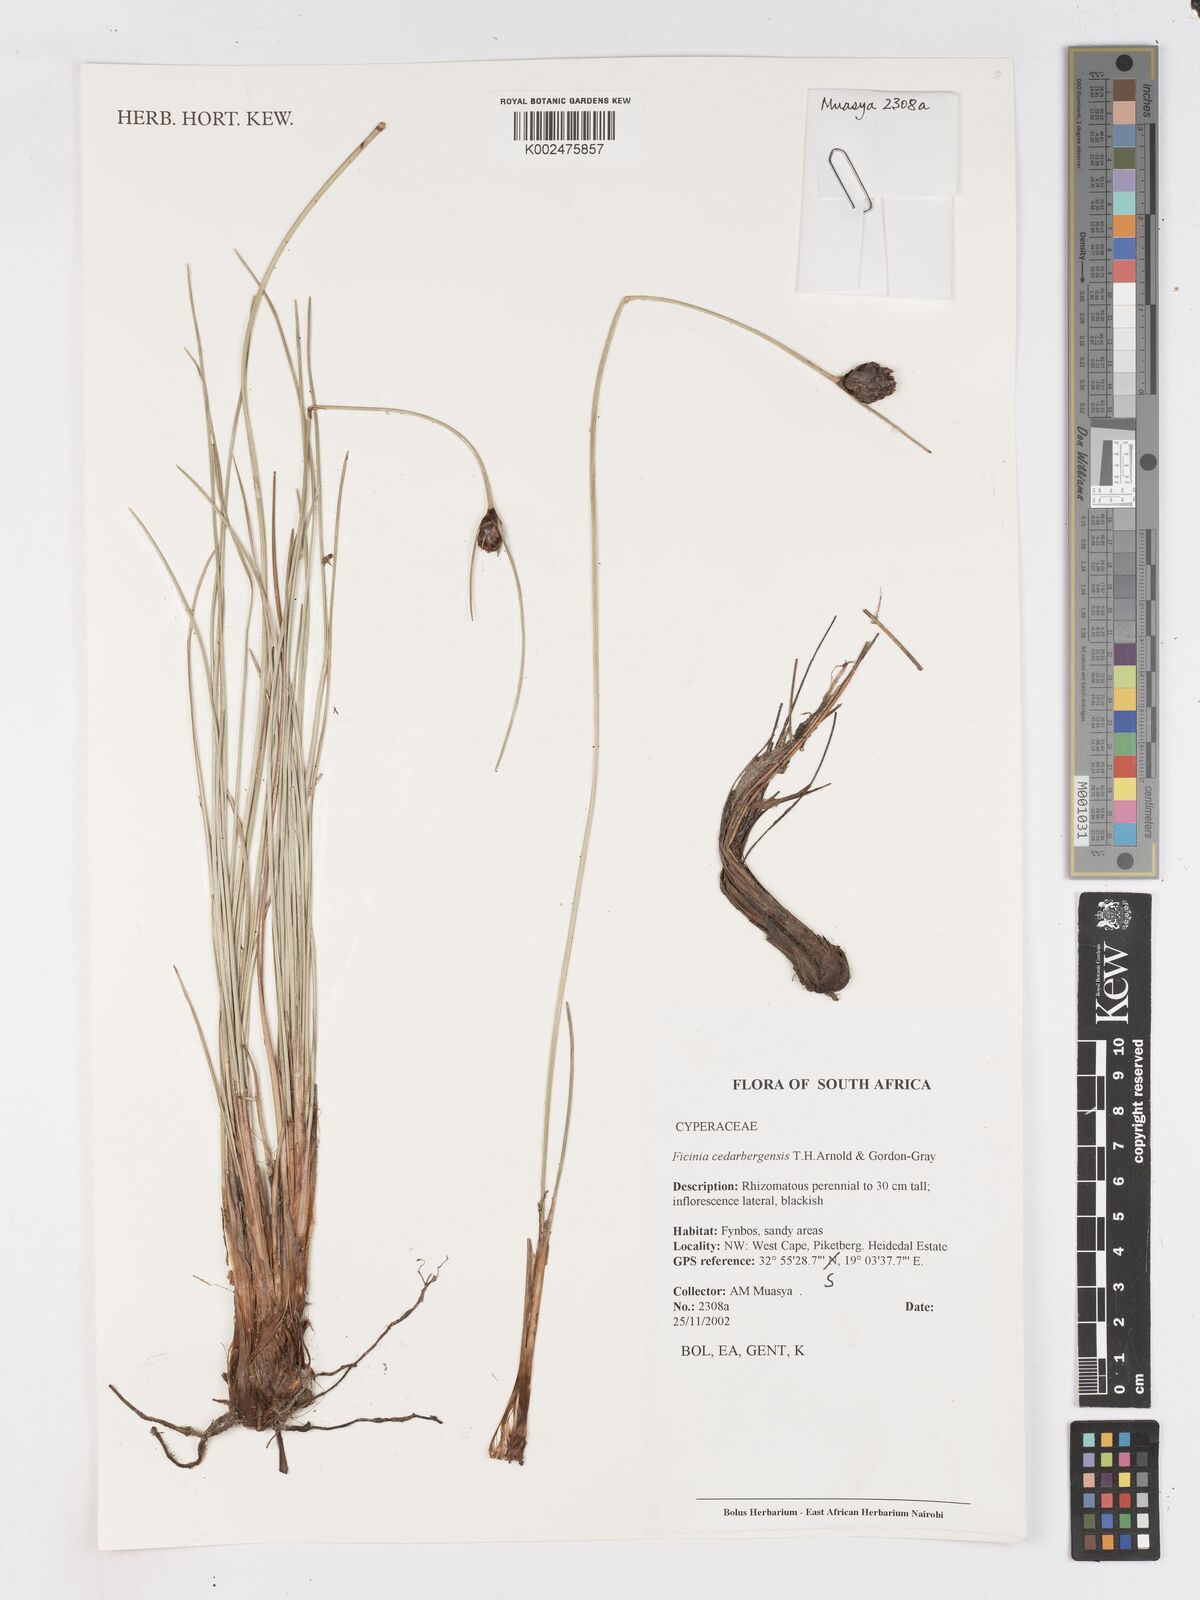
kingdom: Plantae
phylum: Tracheophyta
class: Liliopsida
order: Poales
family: Cyperaceae
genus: Ficinia
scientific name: Ficinia cedarbergensis
